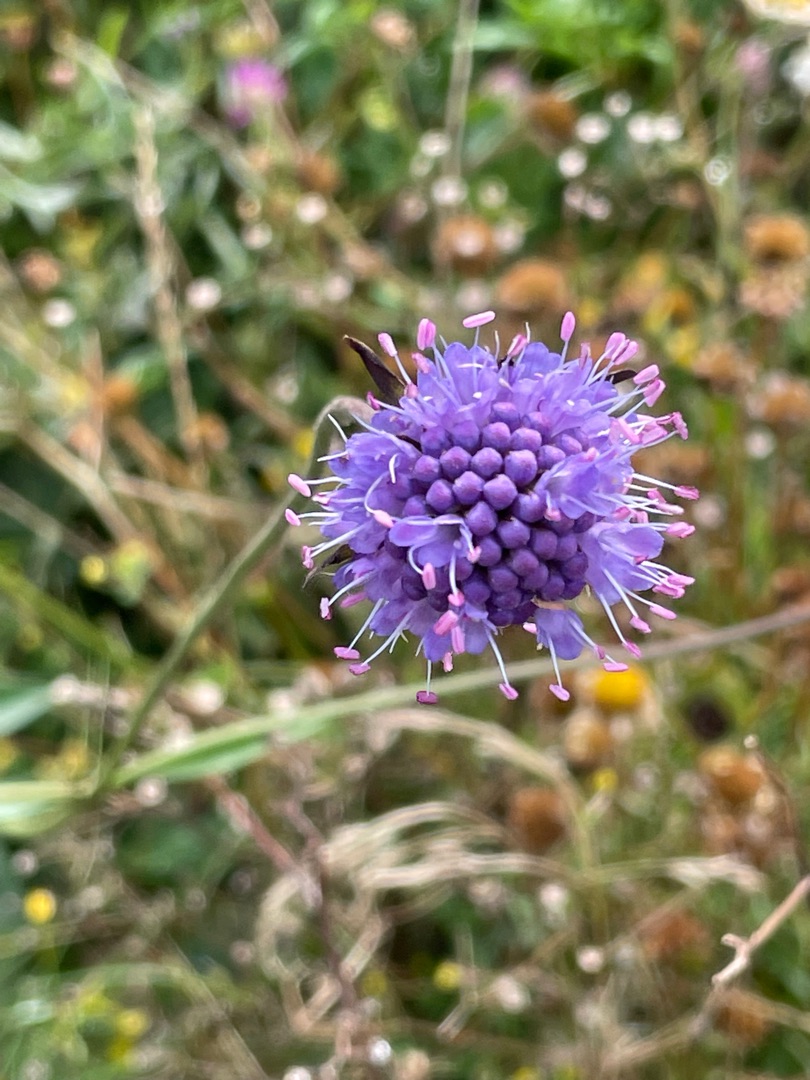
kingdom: Plantae
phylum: Tracheophyta
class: Magnoliopsida
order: Dipsacales
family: Caprifoliaceae
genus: Succisa
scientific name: Succisa pratensis
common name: Djævelsbid
